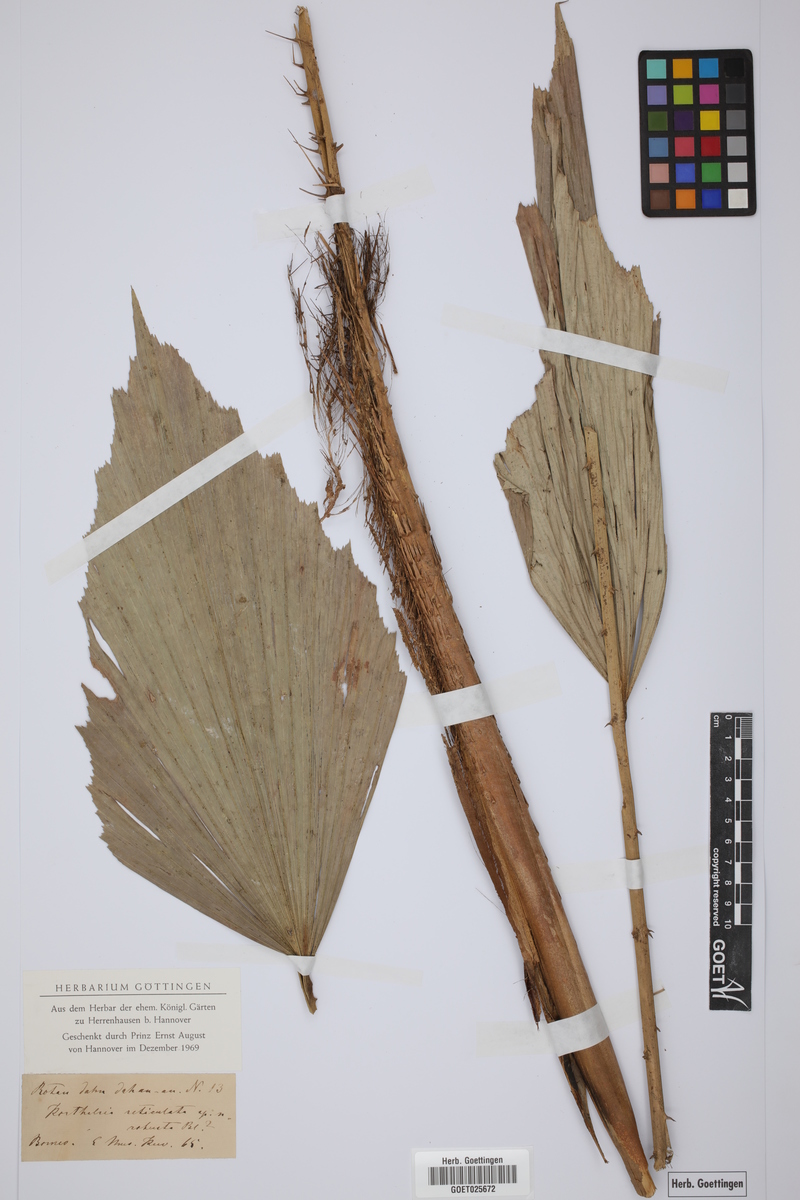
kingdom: Plantae
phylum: Tracheophyta
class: Liliopsida
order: Arecales
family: Arecaceae
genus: Korthalsia
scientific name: Korthalsia robusta
